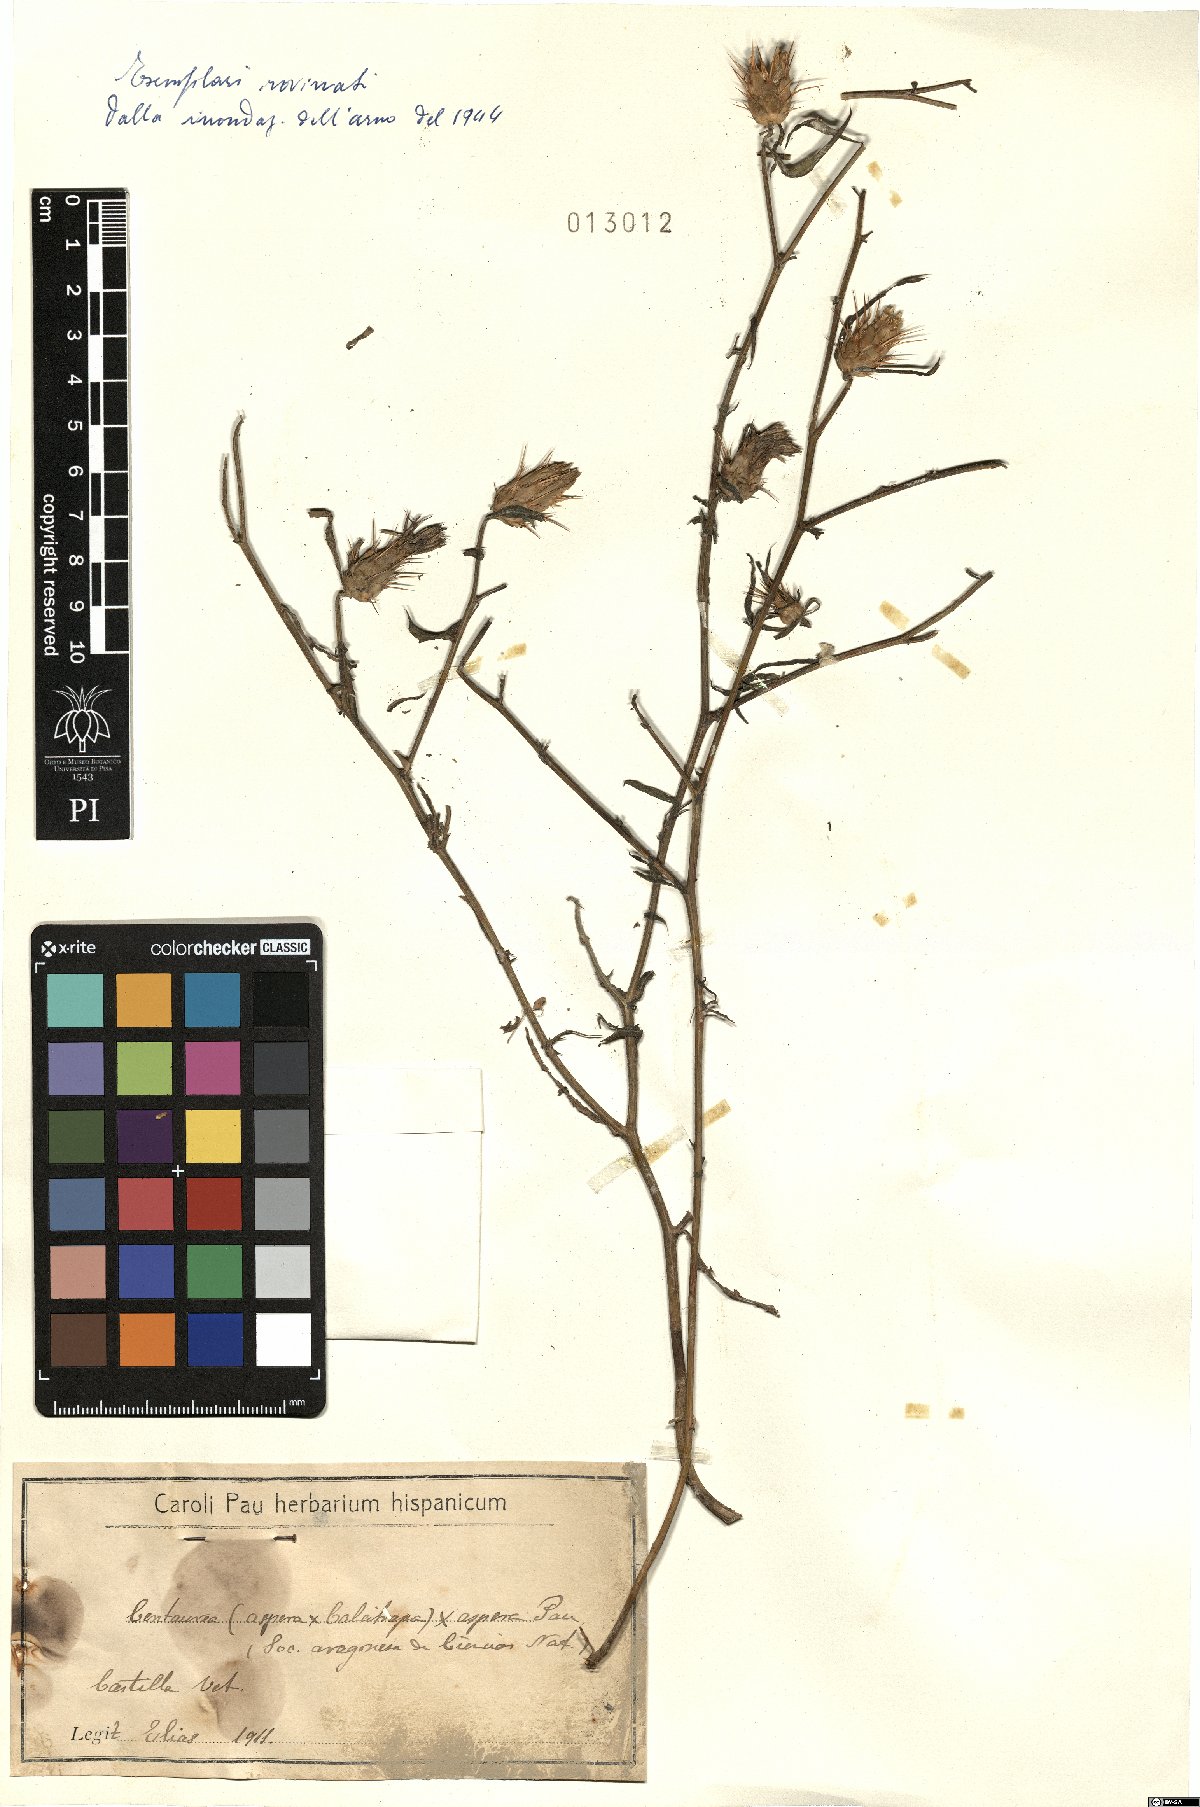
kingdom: Plantae
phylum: Tracheophyta
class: Magnoliopsida
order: Asterales
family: Asteraceae
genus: Centaurea
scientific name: Centaurea aspera
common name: Rough star-thistle
